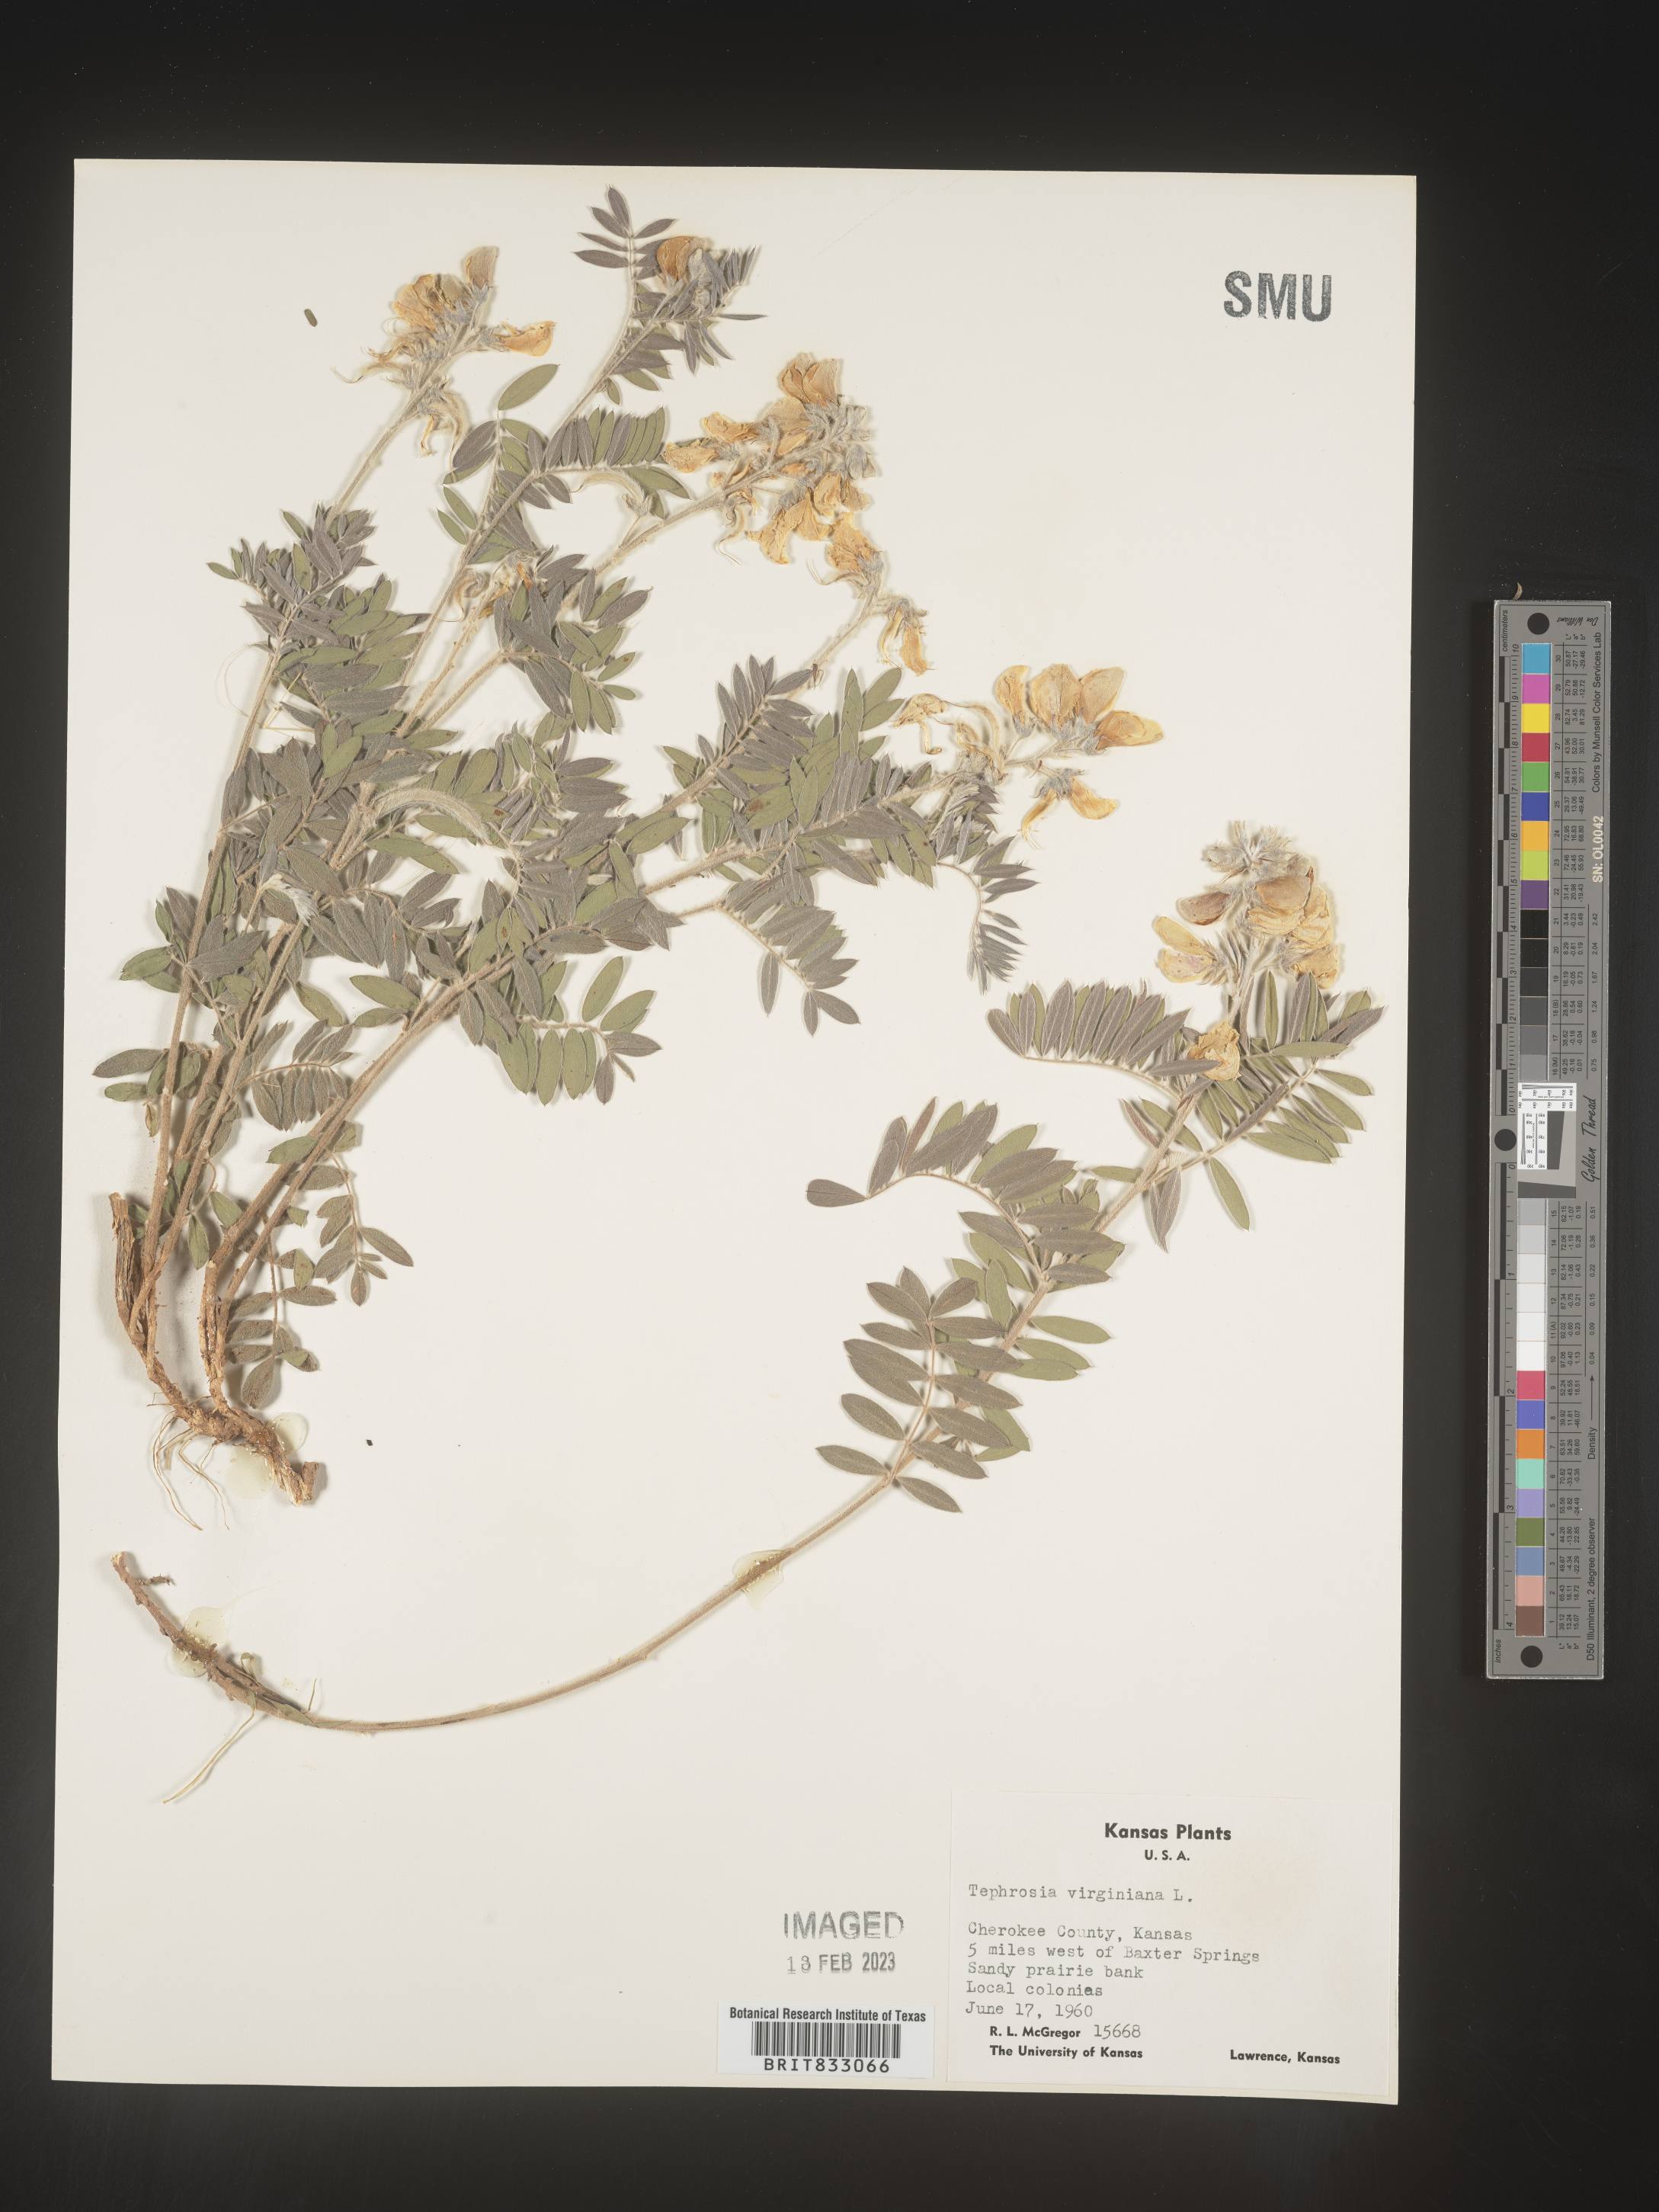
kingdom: Plantae
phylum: Tracheophyta
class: Magnoliopsida
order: Fabales
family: Fabaceae
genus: Tephrosia
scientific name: Tephrosia virginiana
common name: Rabbit-pea
